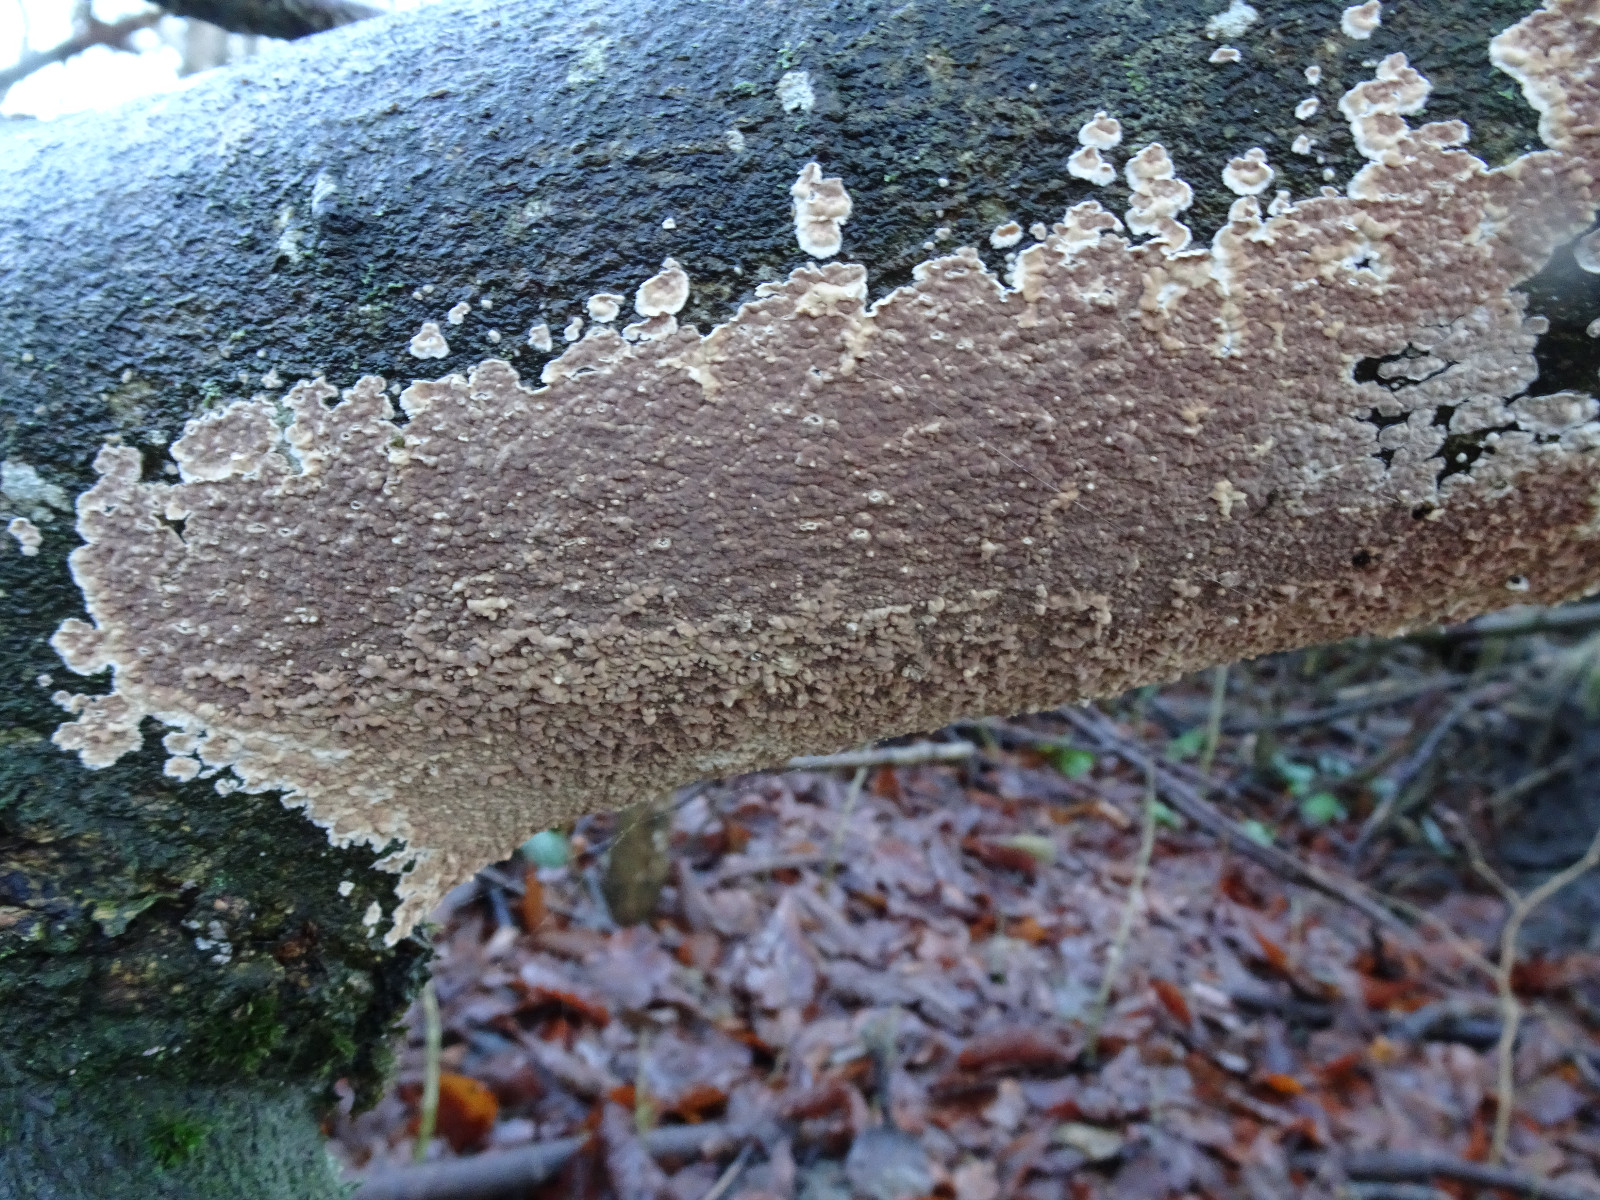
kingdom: Fungi
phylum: Basidiomycota
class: Agaricomycetes
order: Agaricales
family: Physalacriaceae
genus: Cylindrobasidium
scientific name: Cylindrobasidium evolvens
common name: sprækkehinde
